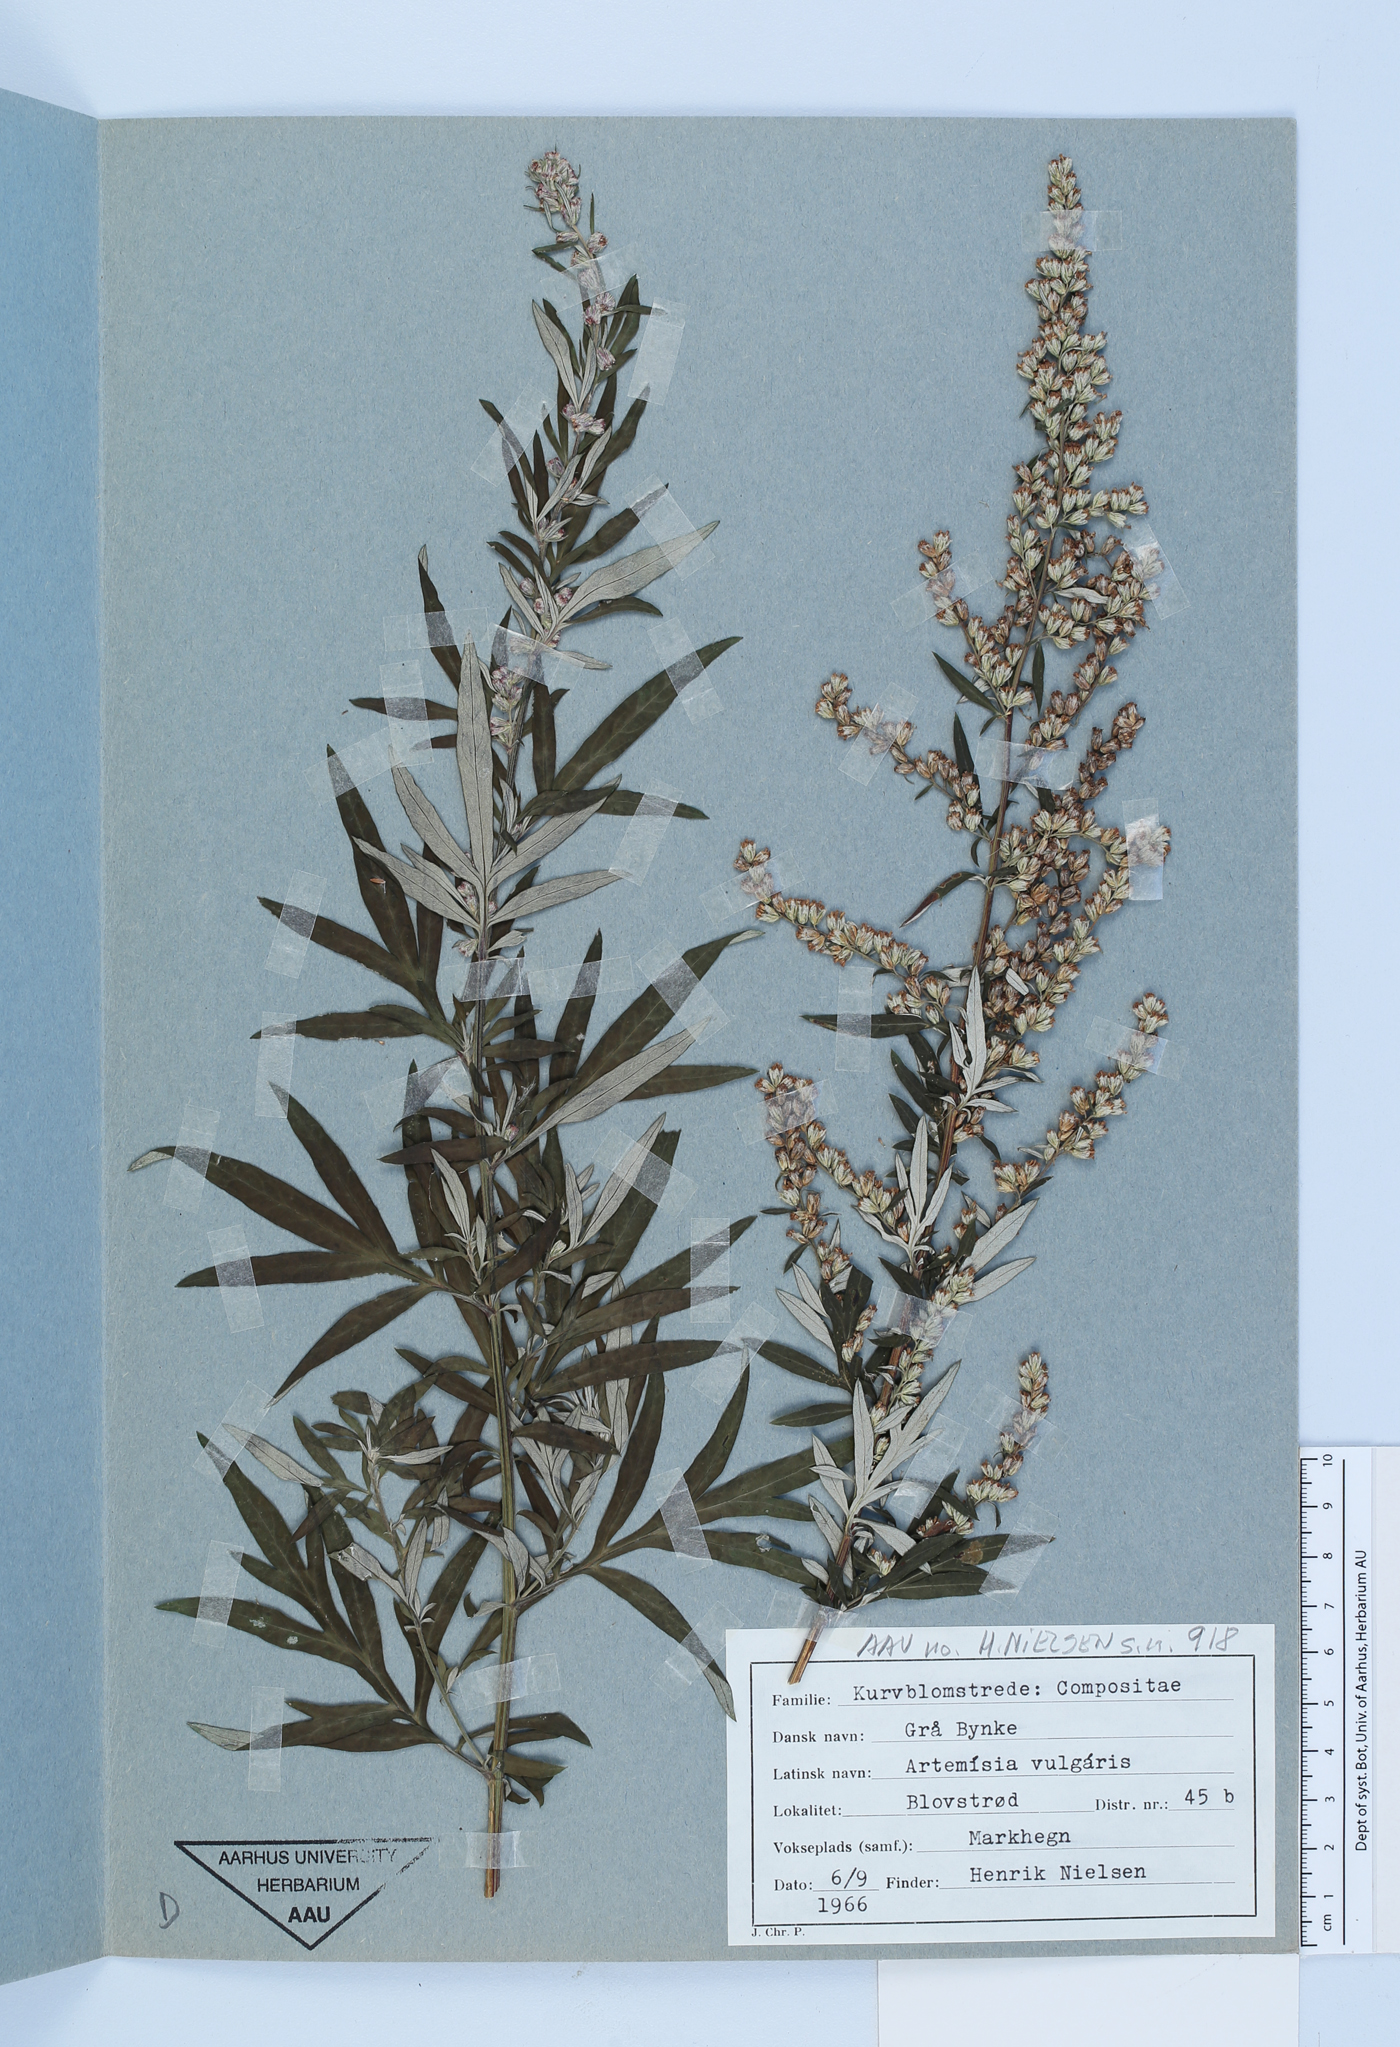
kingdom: Plantae
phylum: Tracheophyta
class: Magnoliopsida
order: Asterales
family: Asteraceae
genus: Artemisia
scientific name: Artemisia vulgaris
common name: Mugwort
